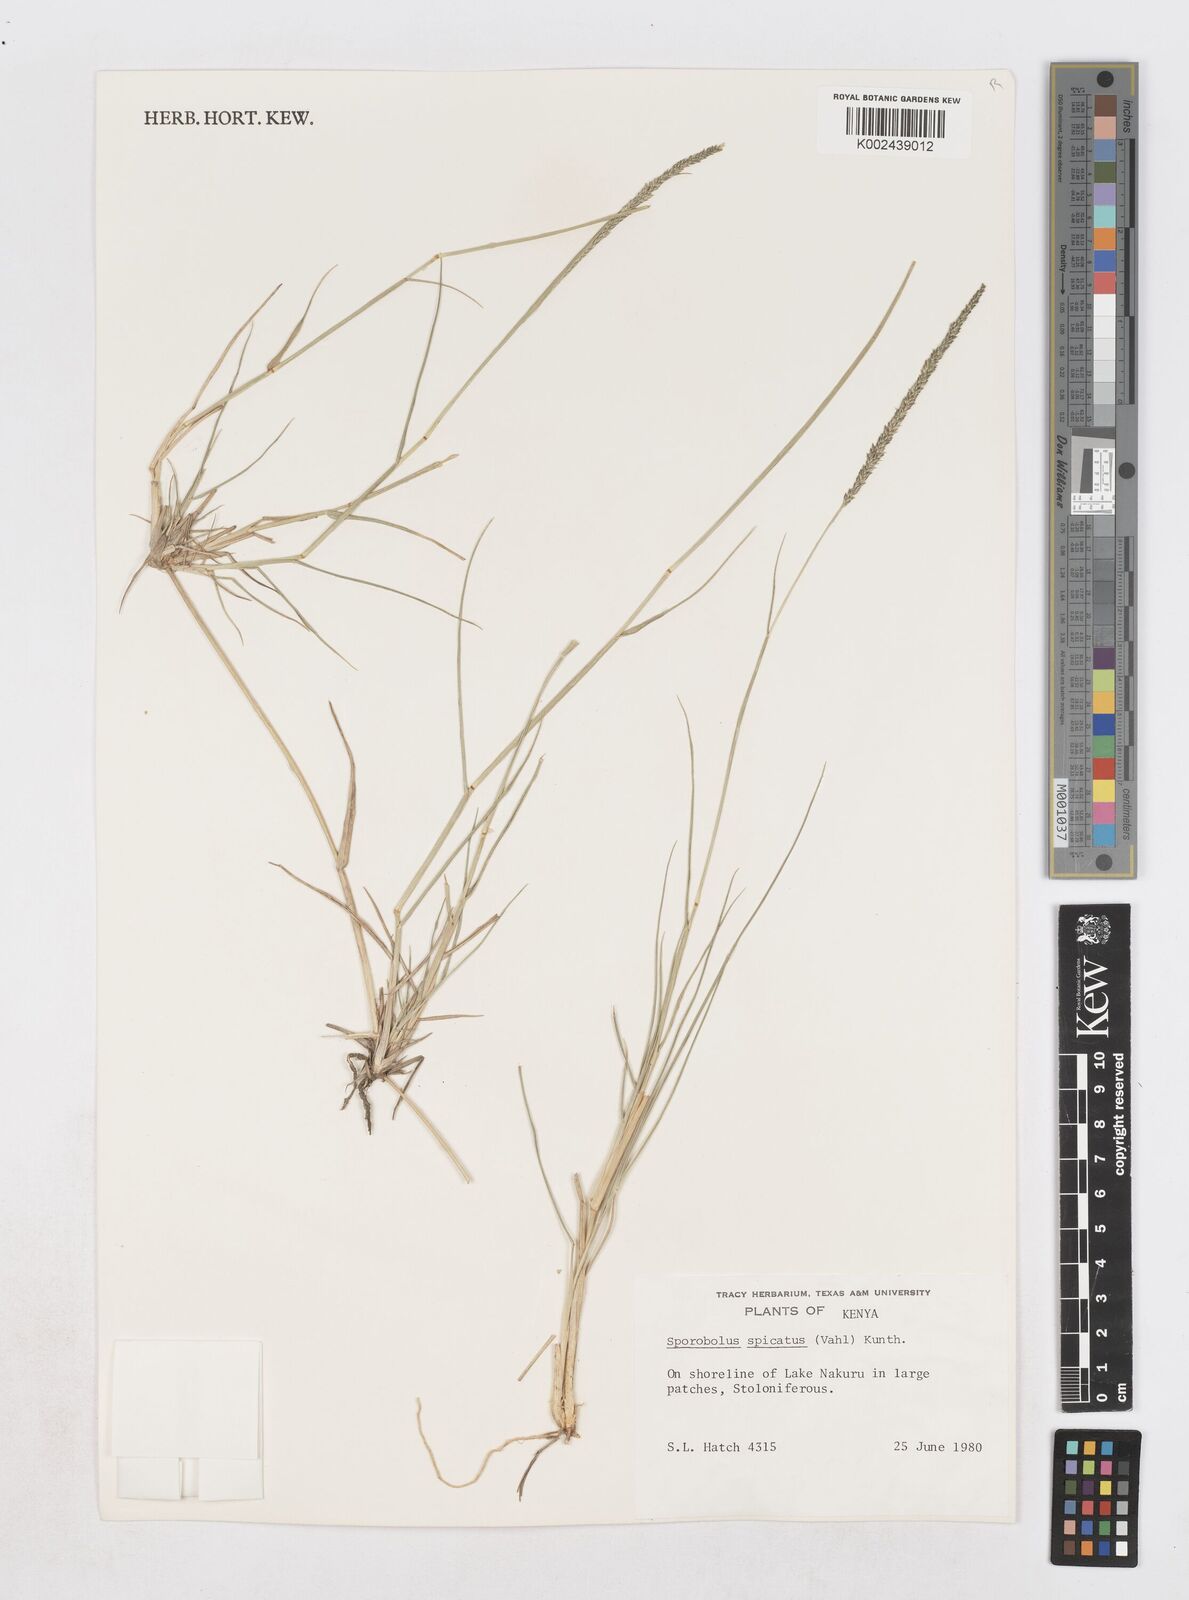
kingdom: Plantae
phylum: Tracheophyta
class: Liliopsida
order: Poales
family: Poaceae
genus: Sporobolus
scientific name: Sporobolus spicatus
